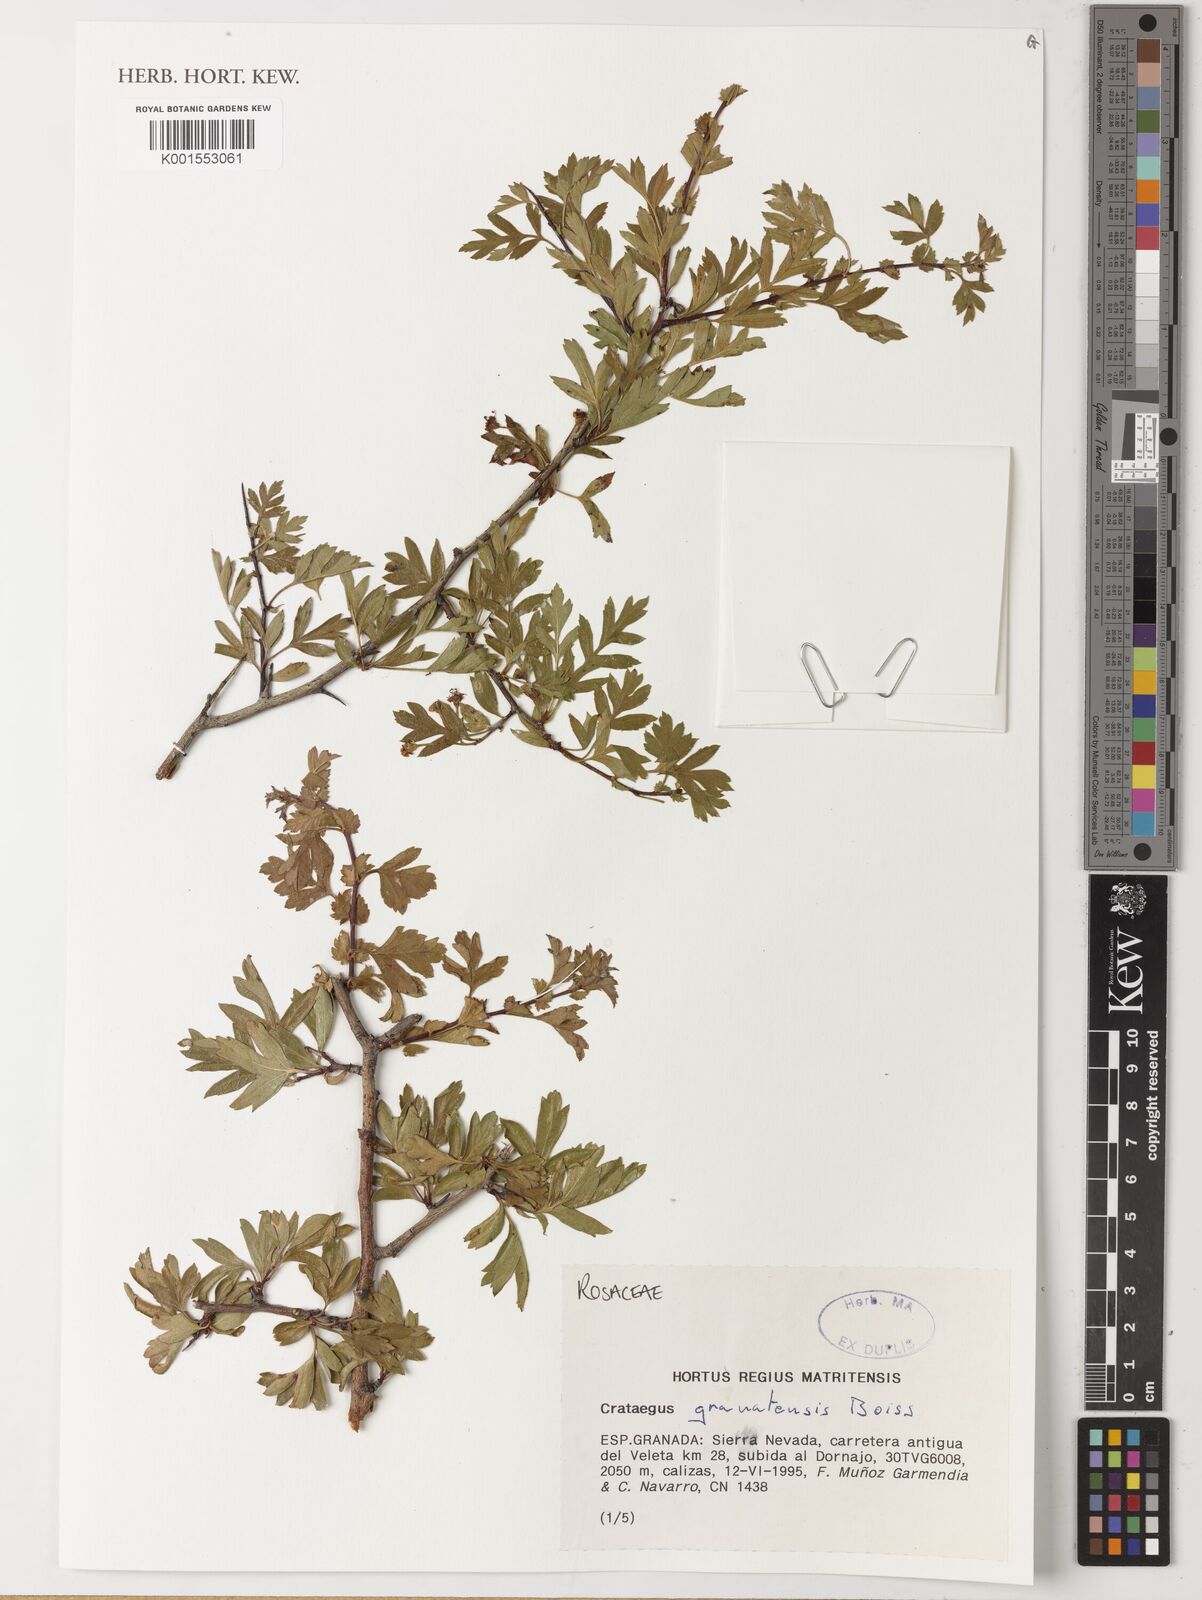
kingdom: Plantae
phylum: Tracheophyta
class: Magnoliopsida
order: Rosales
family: Rosaceae
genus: Crataegus
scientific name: Crataegus granatensis
